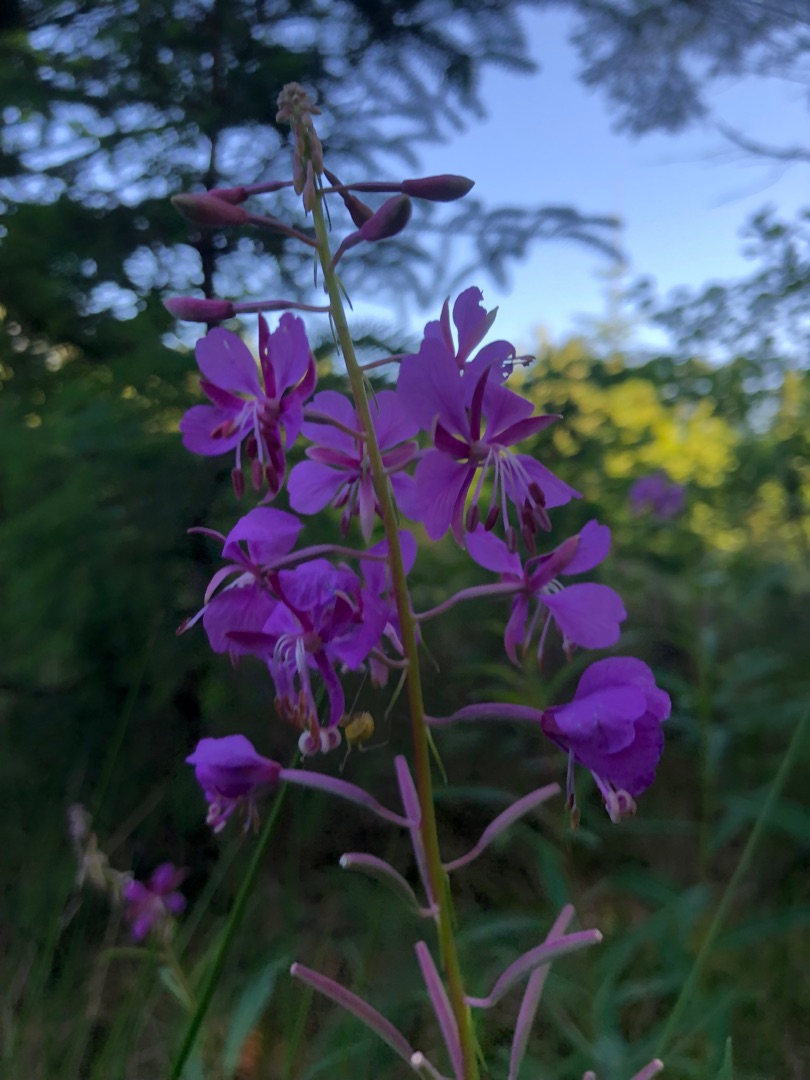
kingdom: Plantae
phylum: Tracheophyta
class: Magnoliopsida
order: Myrtales
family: Onagraceae
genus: Chamaenerion
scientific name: Chamaenerion angustifolium
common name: Gederams
